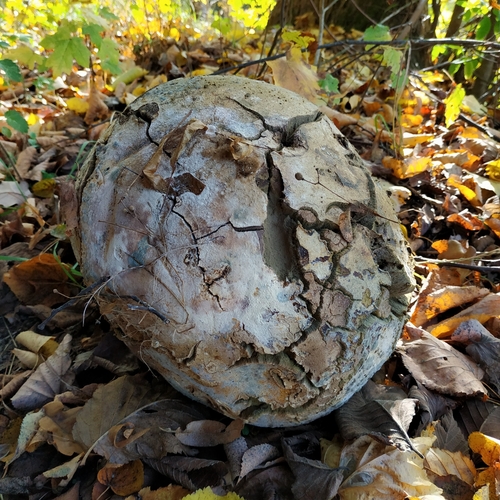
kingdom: Fungi
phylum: Basidiomycota
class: Agaricomycetes
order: Agaricales
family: Lycoperdaceae
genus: Calvatia
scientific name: Calvatia gigantea
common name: Giant puffball
